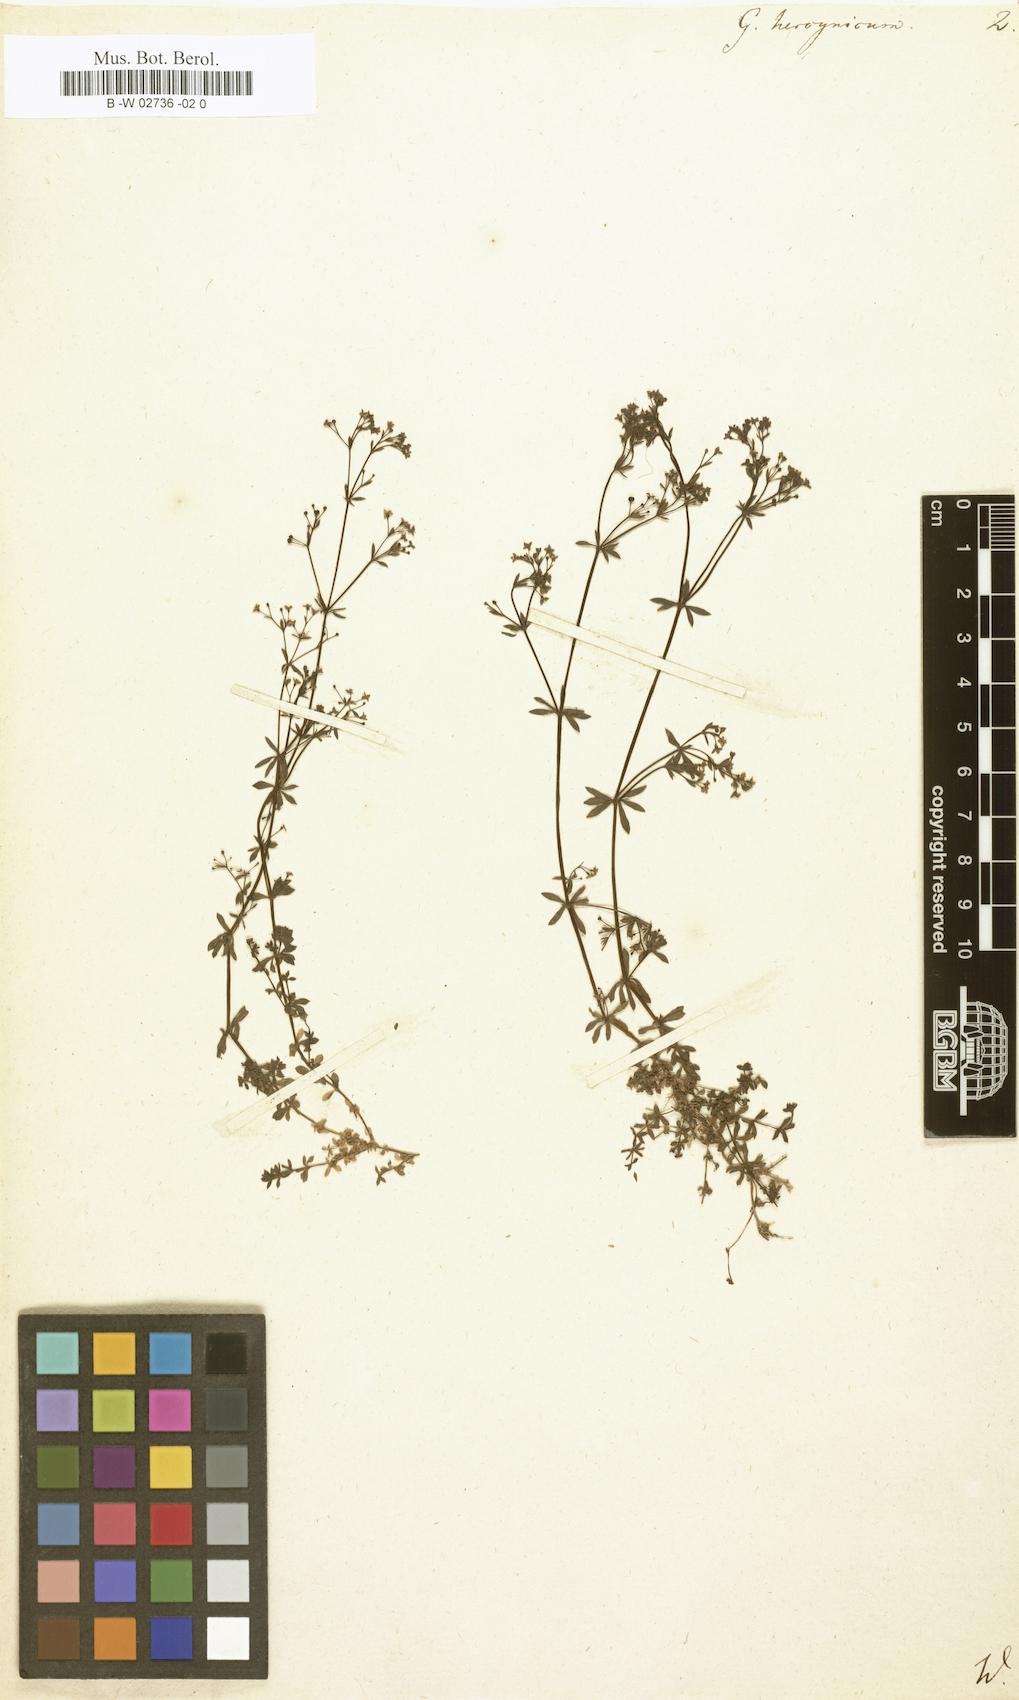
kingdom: Plantae
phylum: Tracheophyta
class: Magnoliopsida
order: Gentianales
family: Rubiaceae
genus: Galium
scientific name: Galium saxatile
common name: Heath bedstraw
